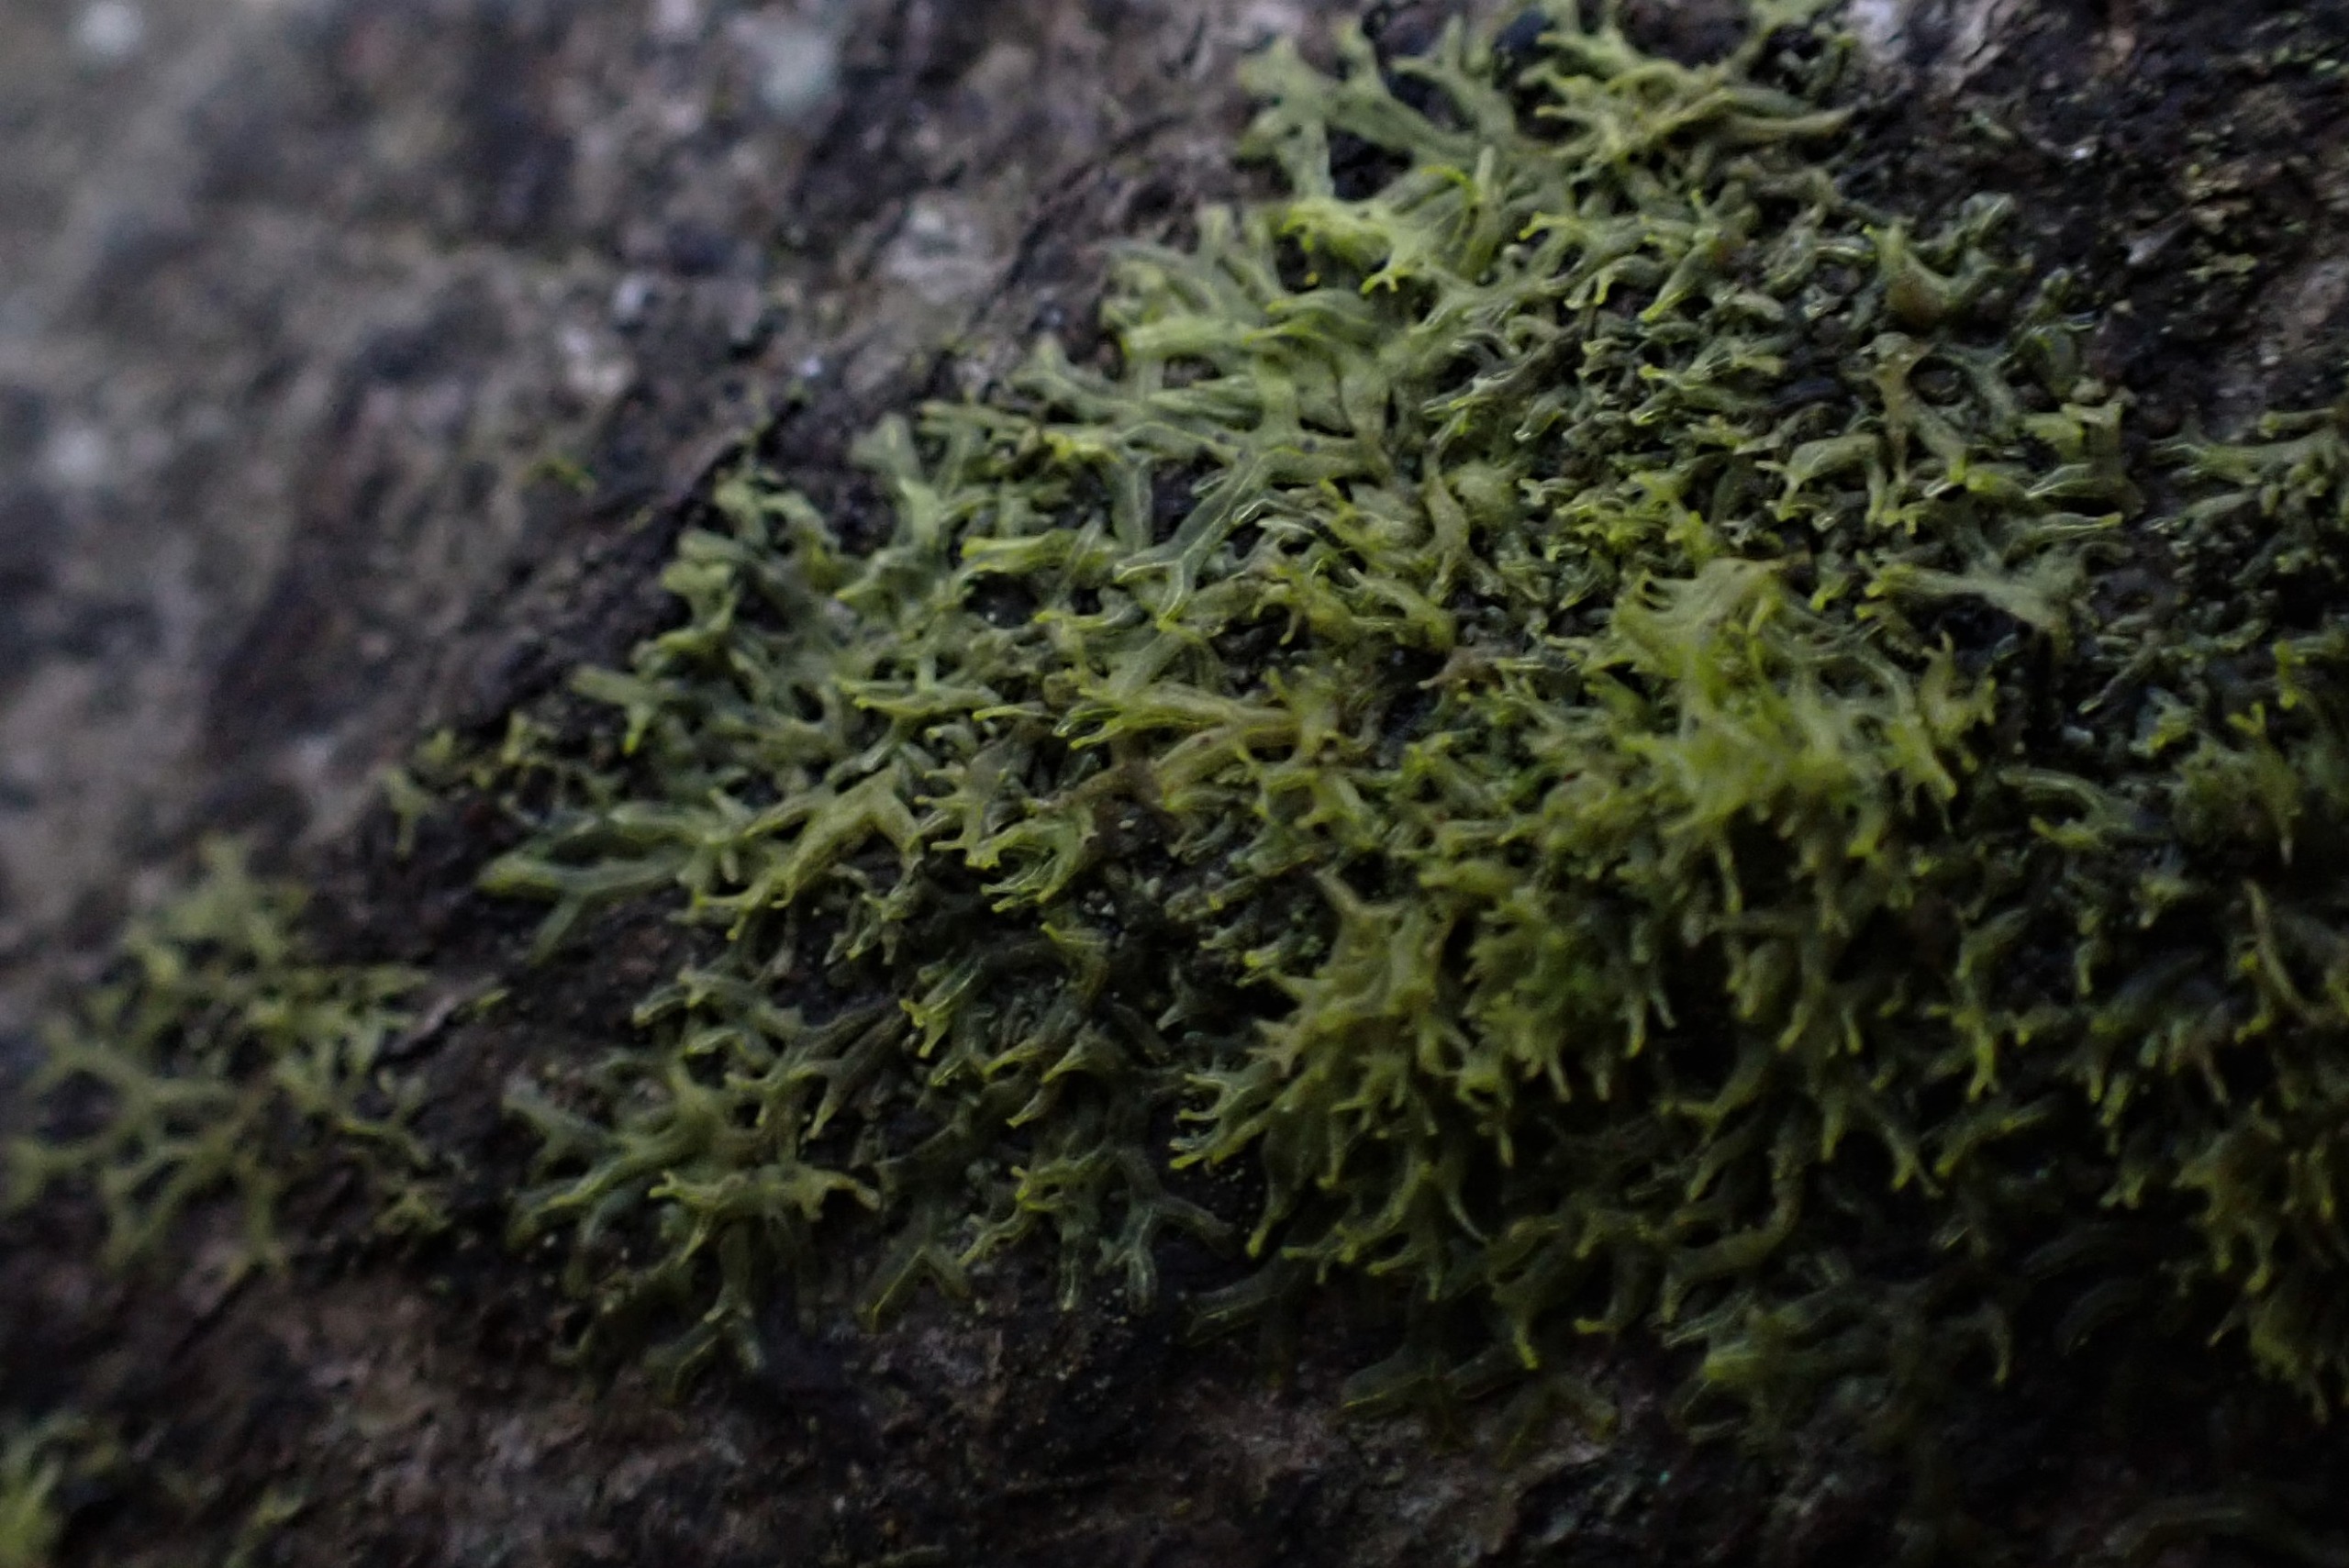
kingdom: Plantae
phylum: Marchantiophyta
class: Jungermanniopsida
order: Metzgeriales
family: Aneuraceae
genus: Riccardia
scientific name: Riccardia palmata
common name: Blågrøn gaffelløv
